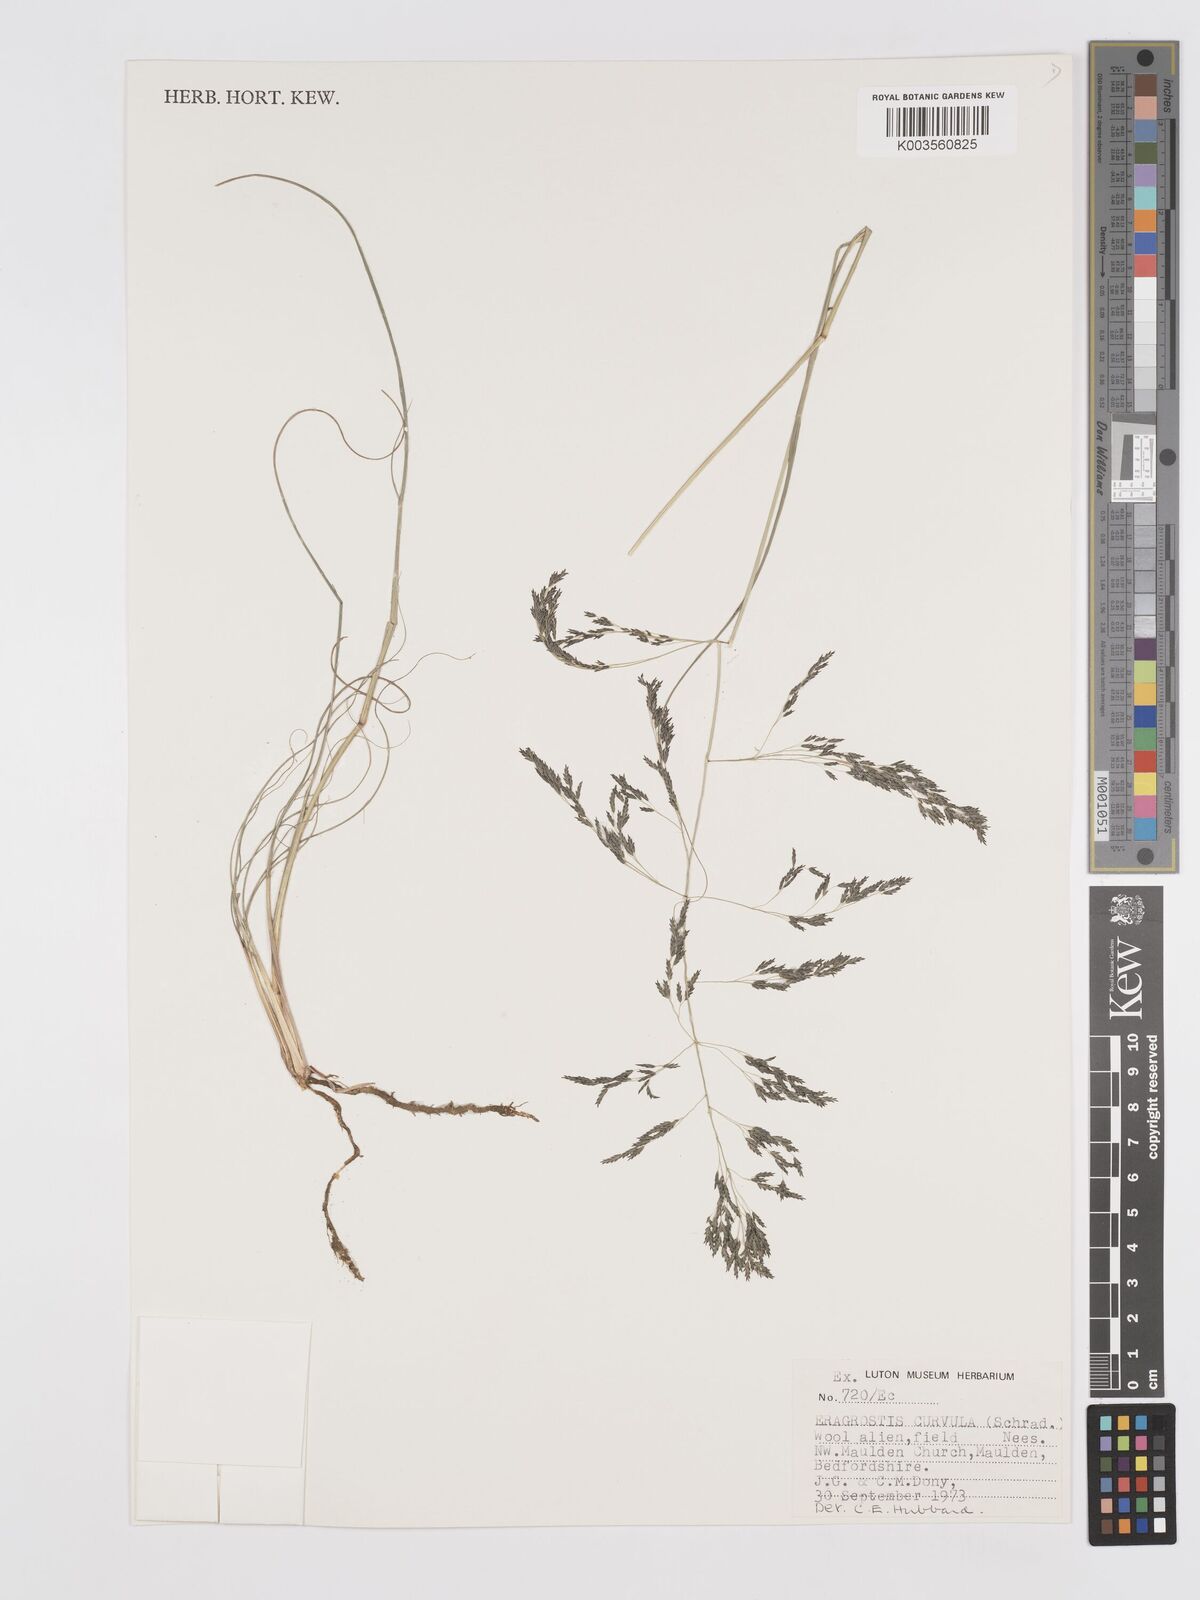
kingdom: Plantae
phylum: Tracheophyta
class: Liliopsida
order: Poales
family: Poaceae
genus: Eragrostis
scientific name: Eragrostis curvula
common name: African love-grass
